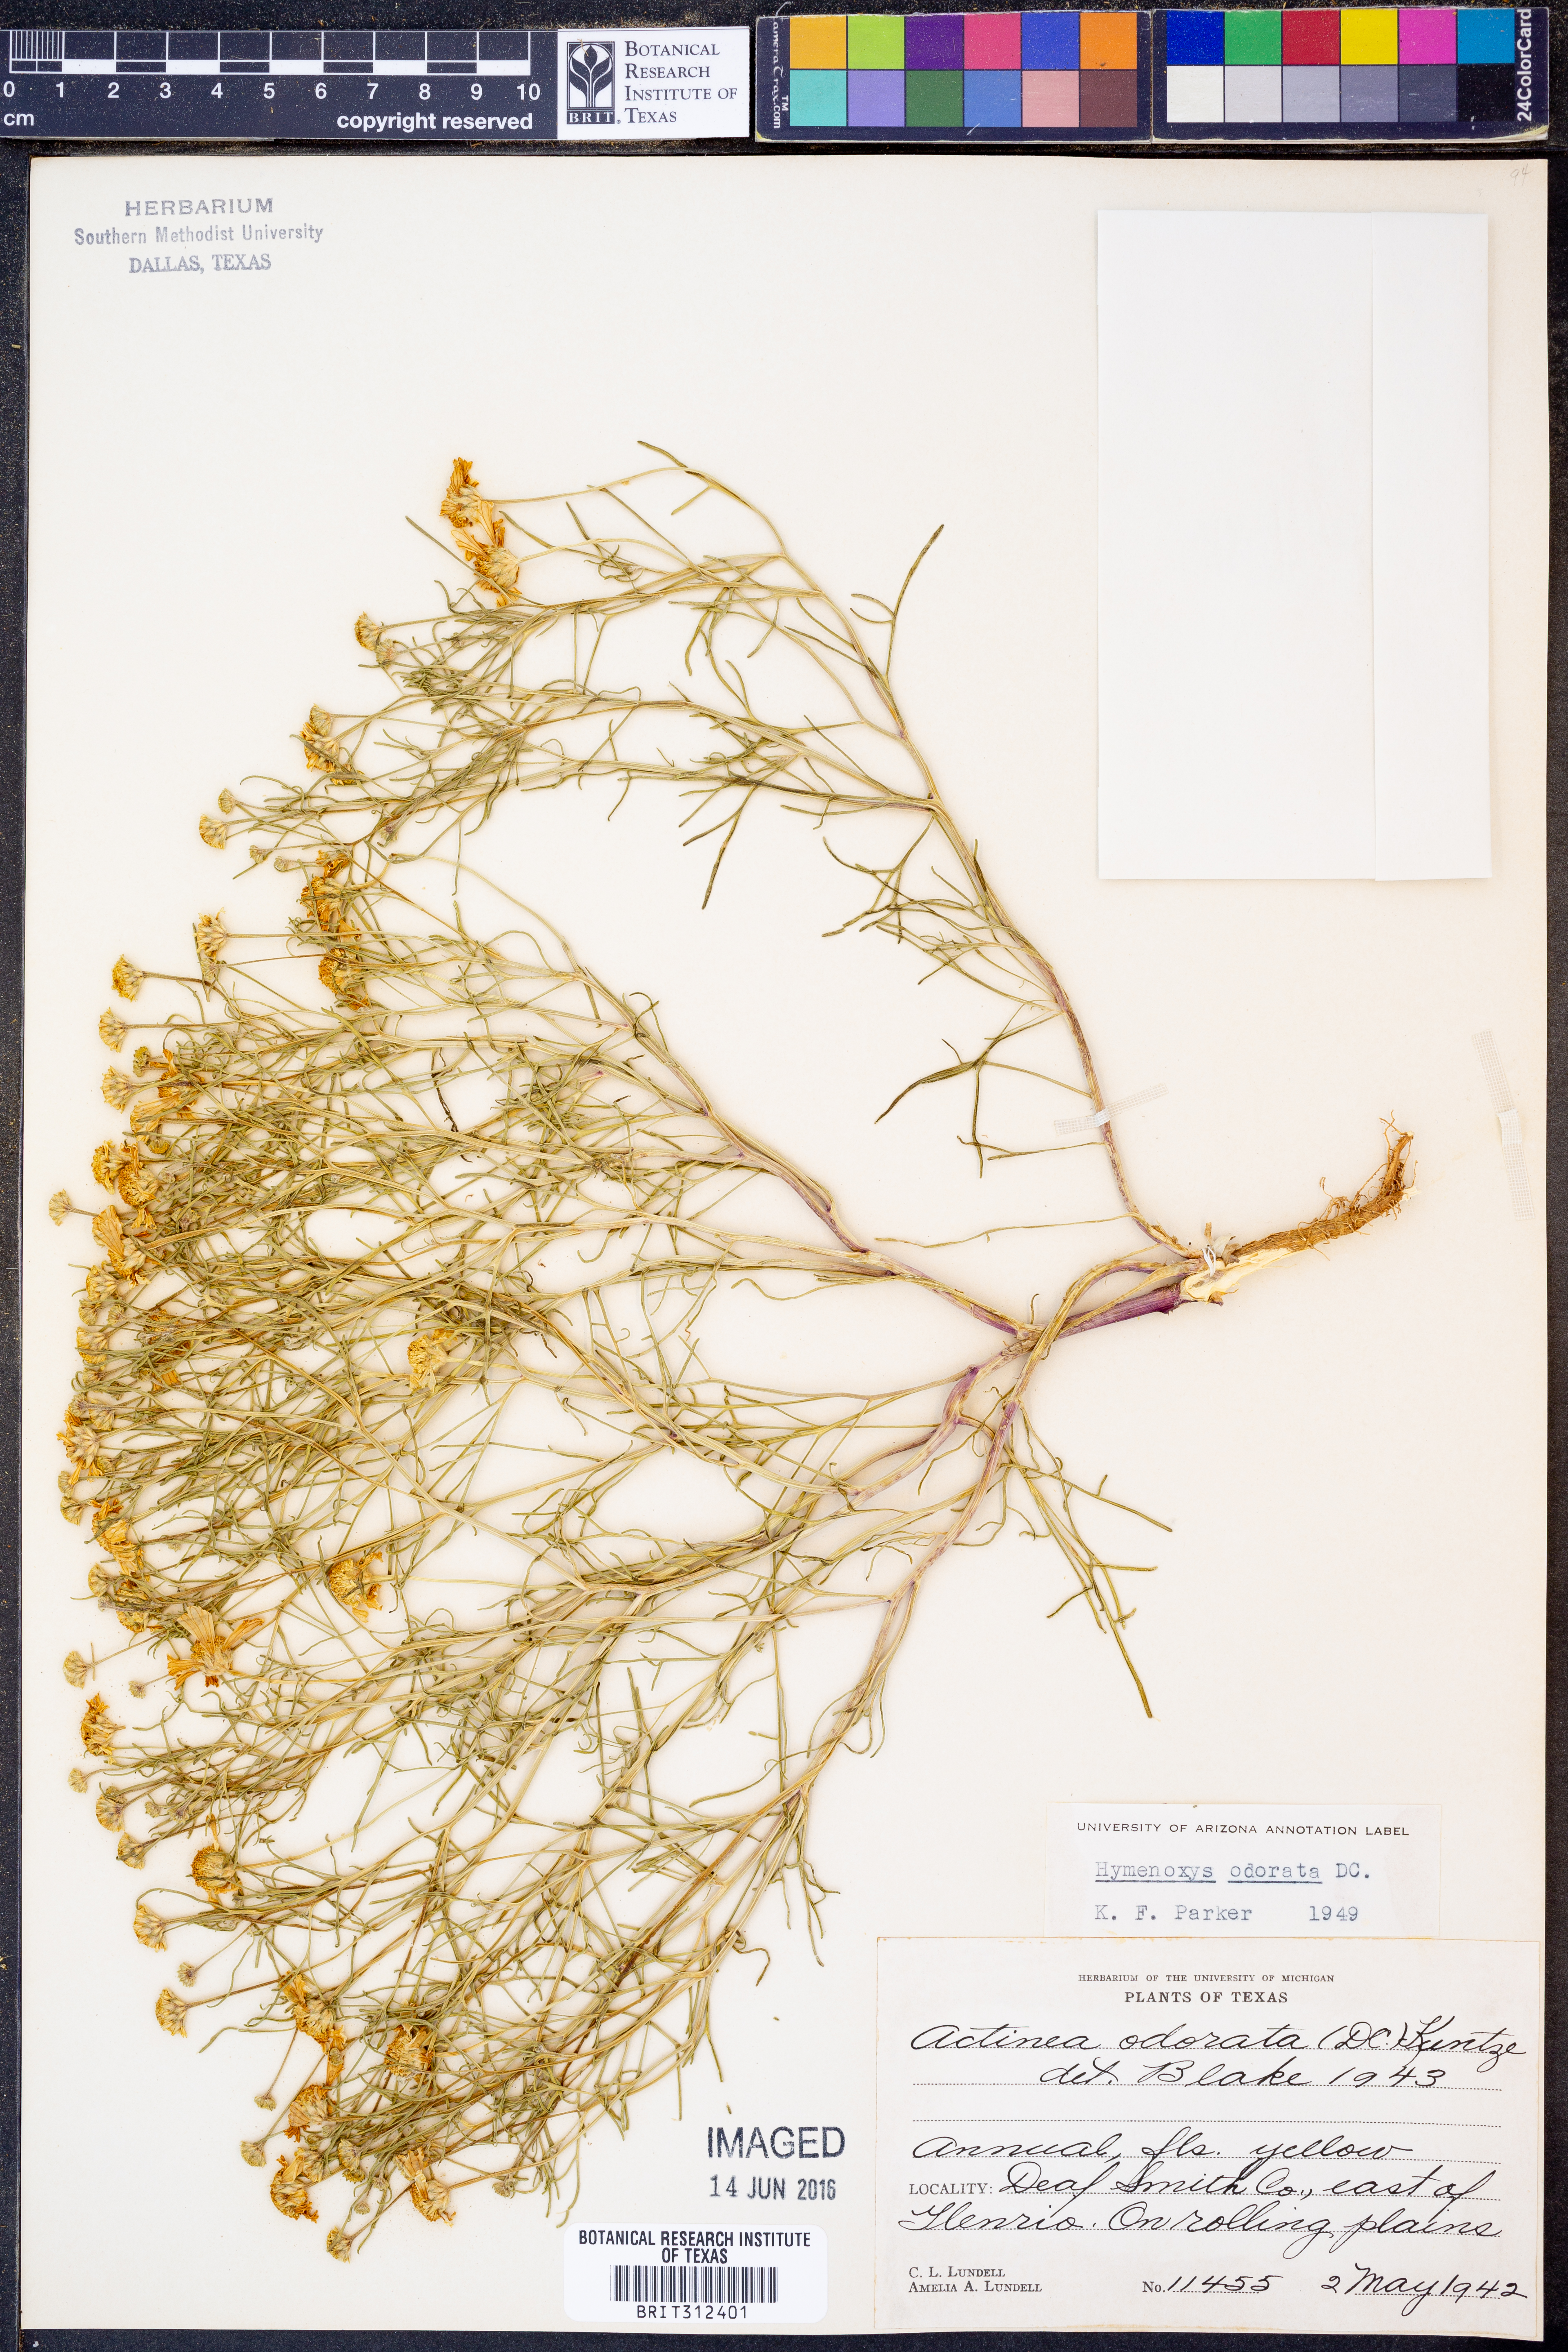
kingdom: Plantae
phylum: Tracheophyta
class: Magnoliopsida
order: Asterales
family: Asteraceae
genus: Hymenoxys
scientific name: Hymenoxys odorata
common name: Bitter rubberweed
